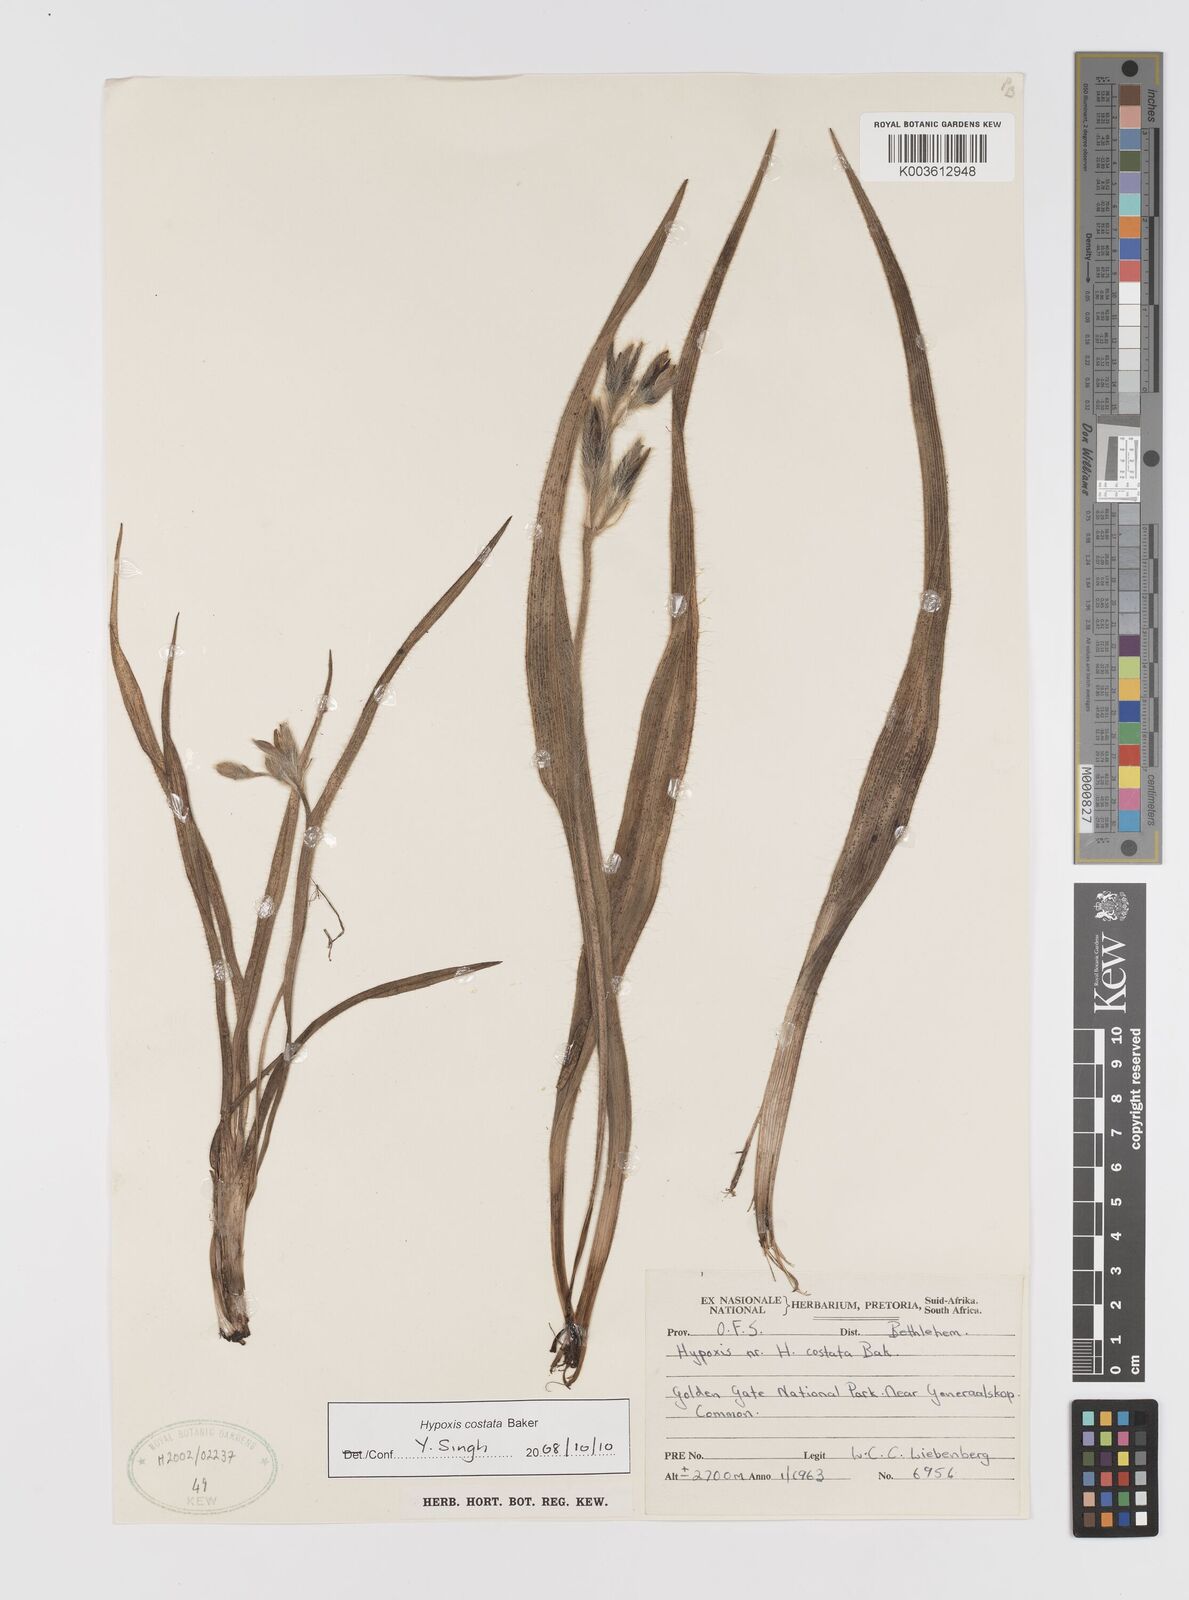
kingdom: Plantae
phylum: Tracheophyta
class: Liliopsida
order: Asparagales
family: Hypoxidaceae
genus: Hypoxis
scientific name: Hypoxis costata
